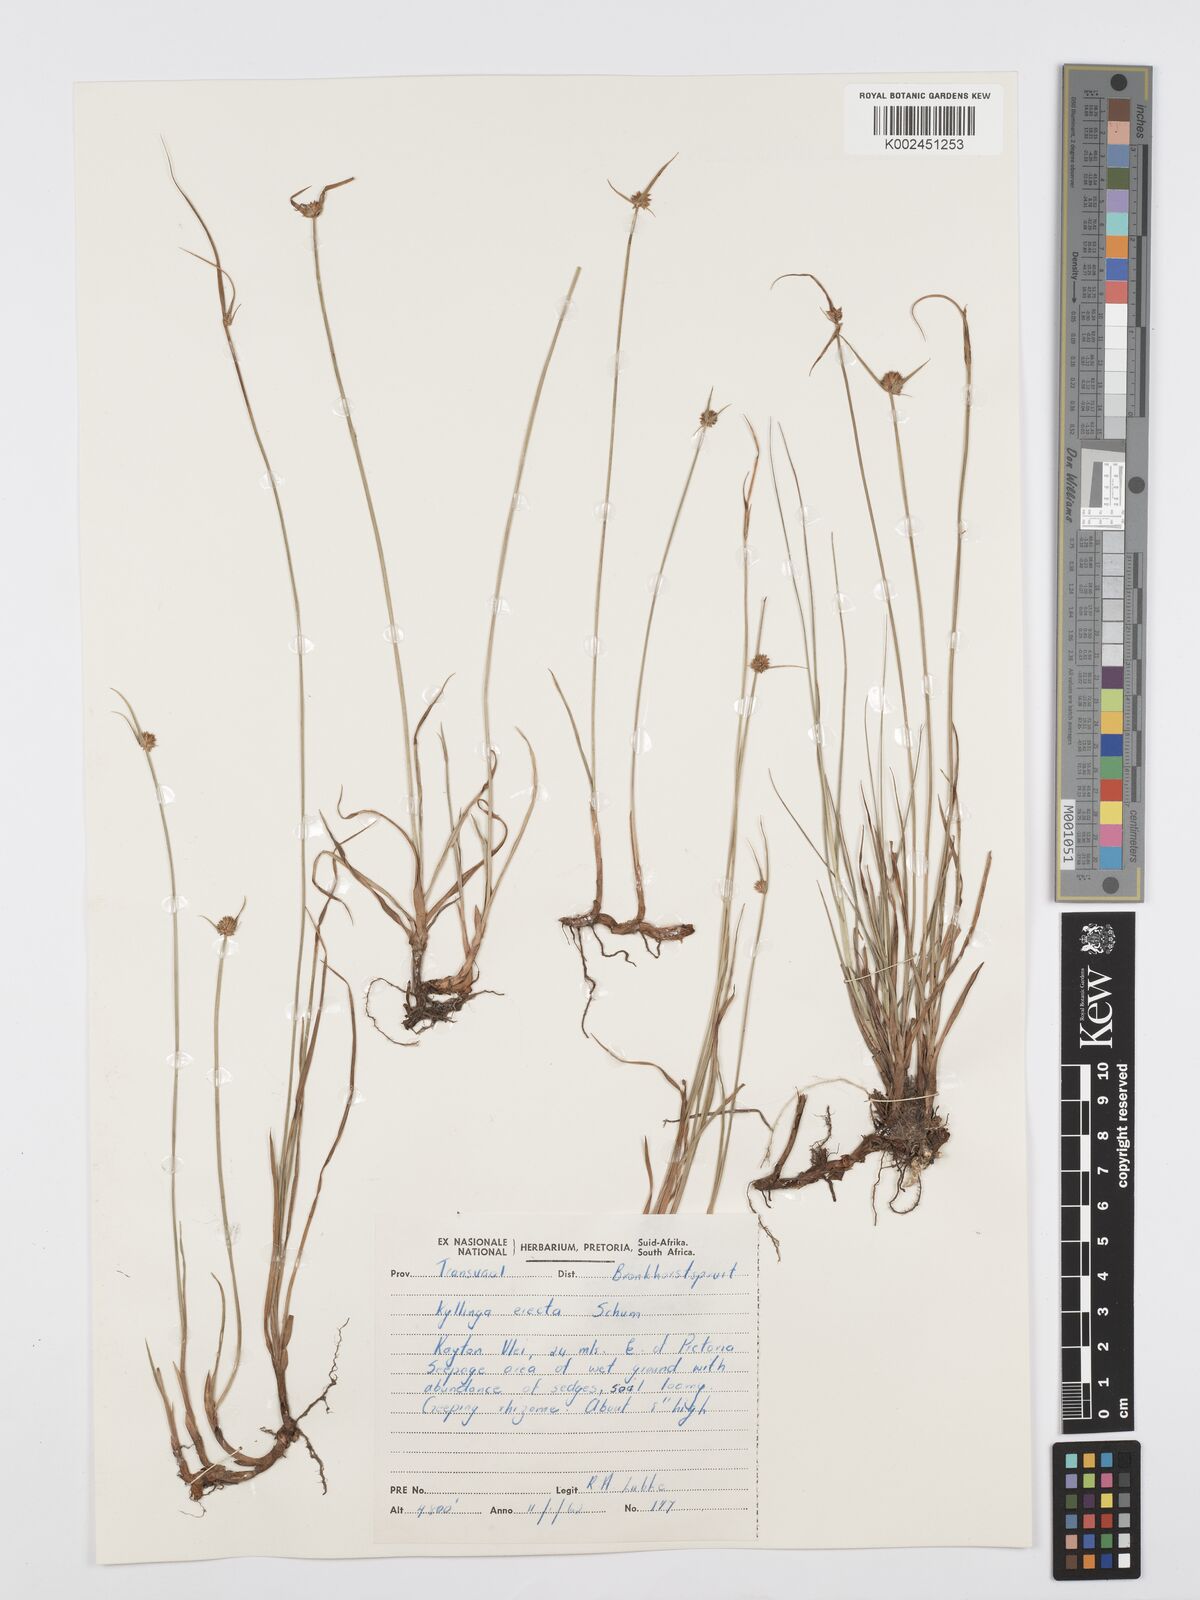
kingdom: Plantae
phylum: Tracheophyta
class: Liliopsida
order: Poales
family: Cyperaceae
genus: Cyperus
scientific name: Cyperus erectus
